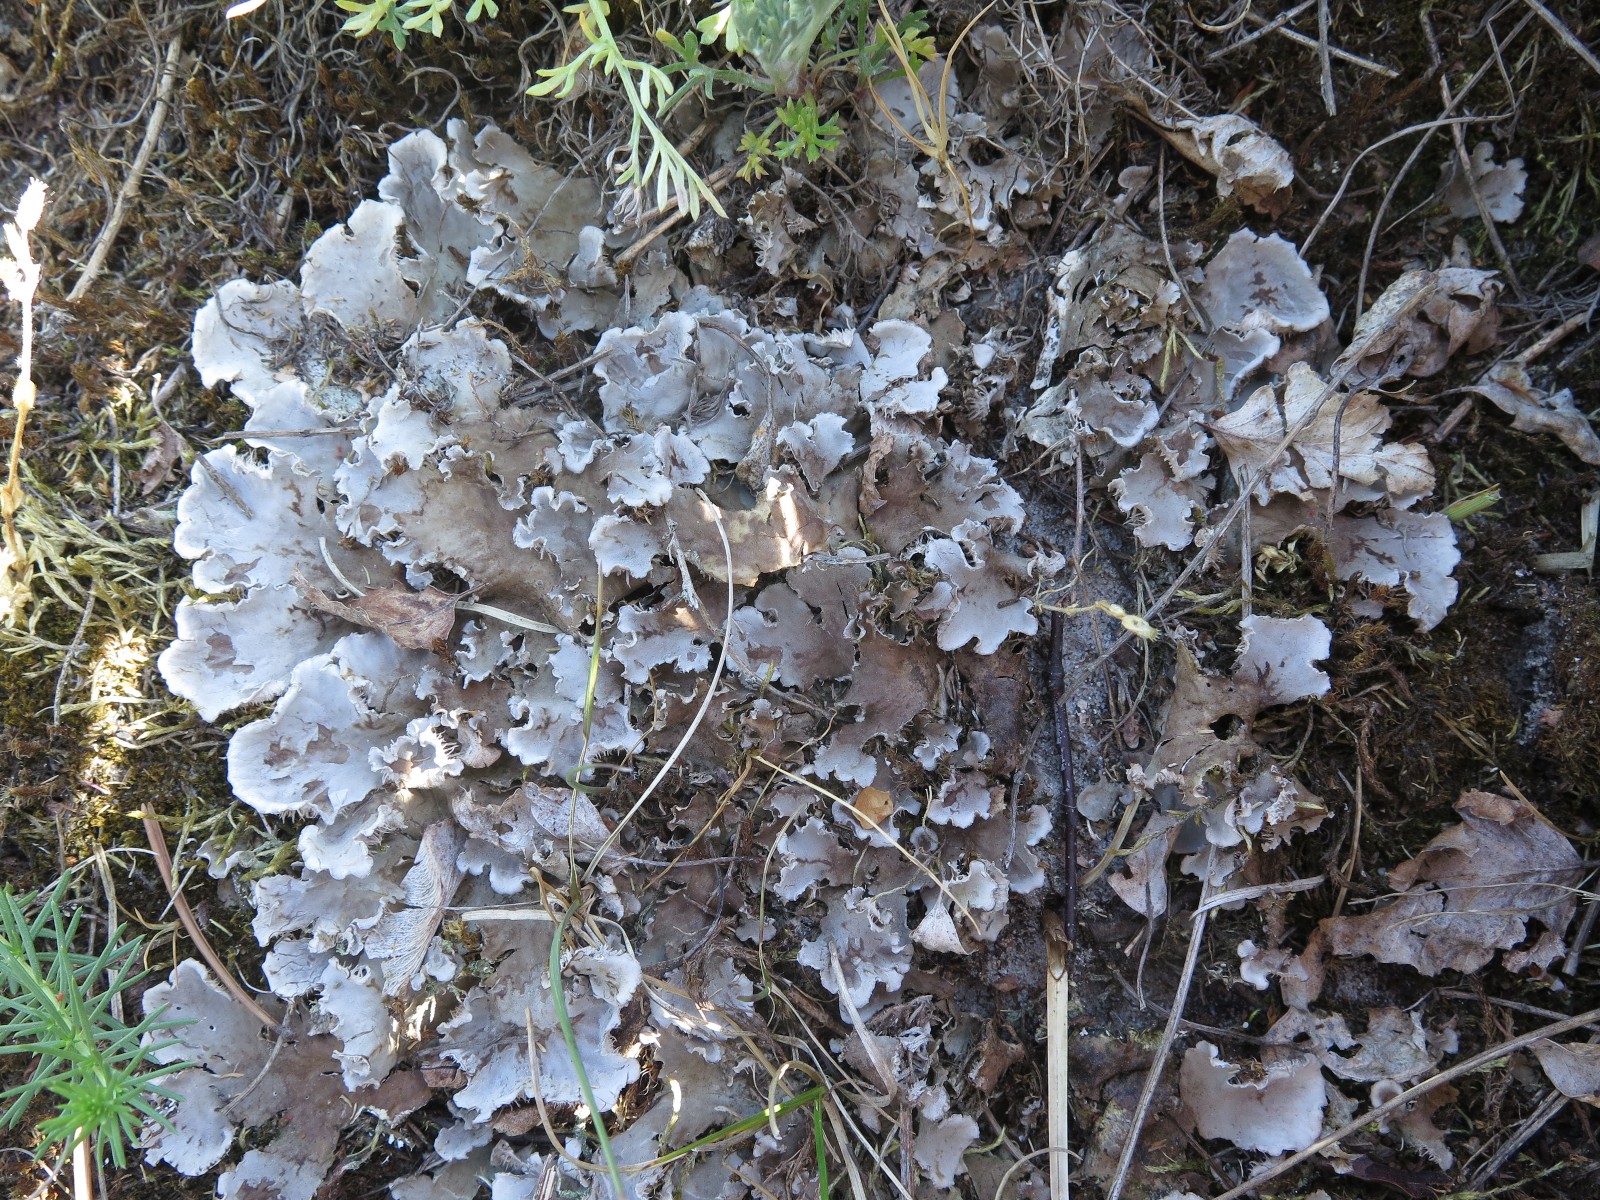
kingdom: Fungi
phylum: Ascomycota
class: Lecanoromycetes
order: Peltigerales
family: Peltigeraceae
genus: Peltigera
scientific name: Peltigera canina
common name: hunde-skjoldlav
